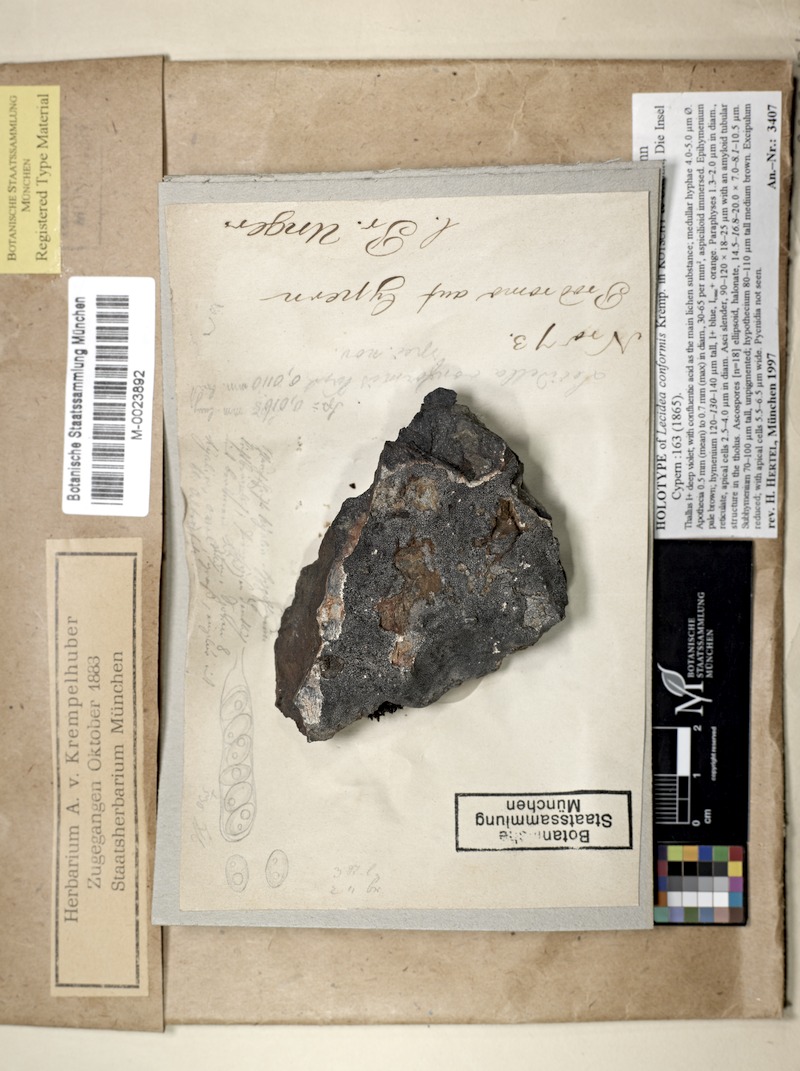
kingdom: Fungi
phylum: Ascomycota
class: Lecanoromycetes
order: Lecideales
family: Lecideaceae
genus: Immersaria
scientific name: Immersaria athroocarpa
